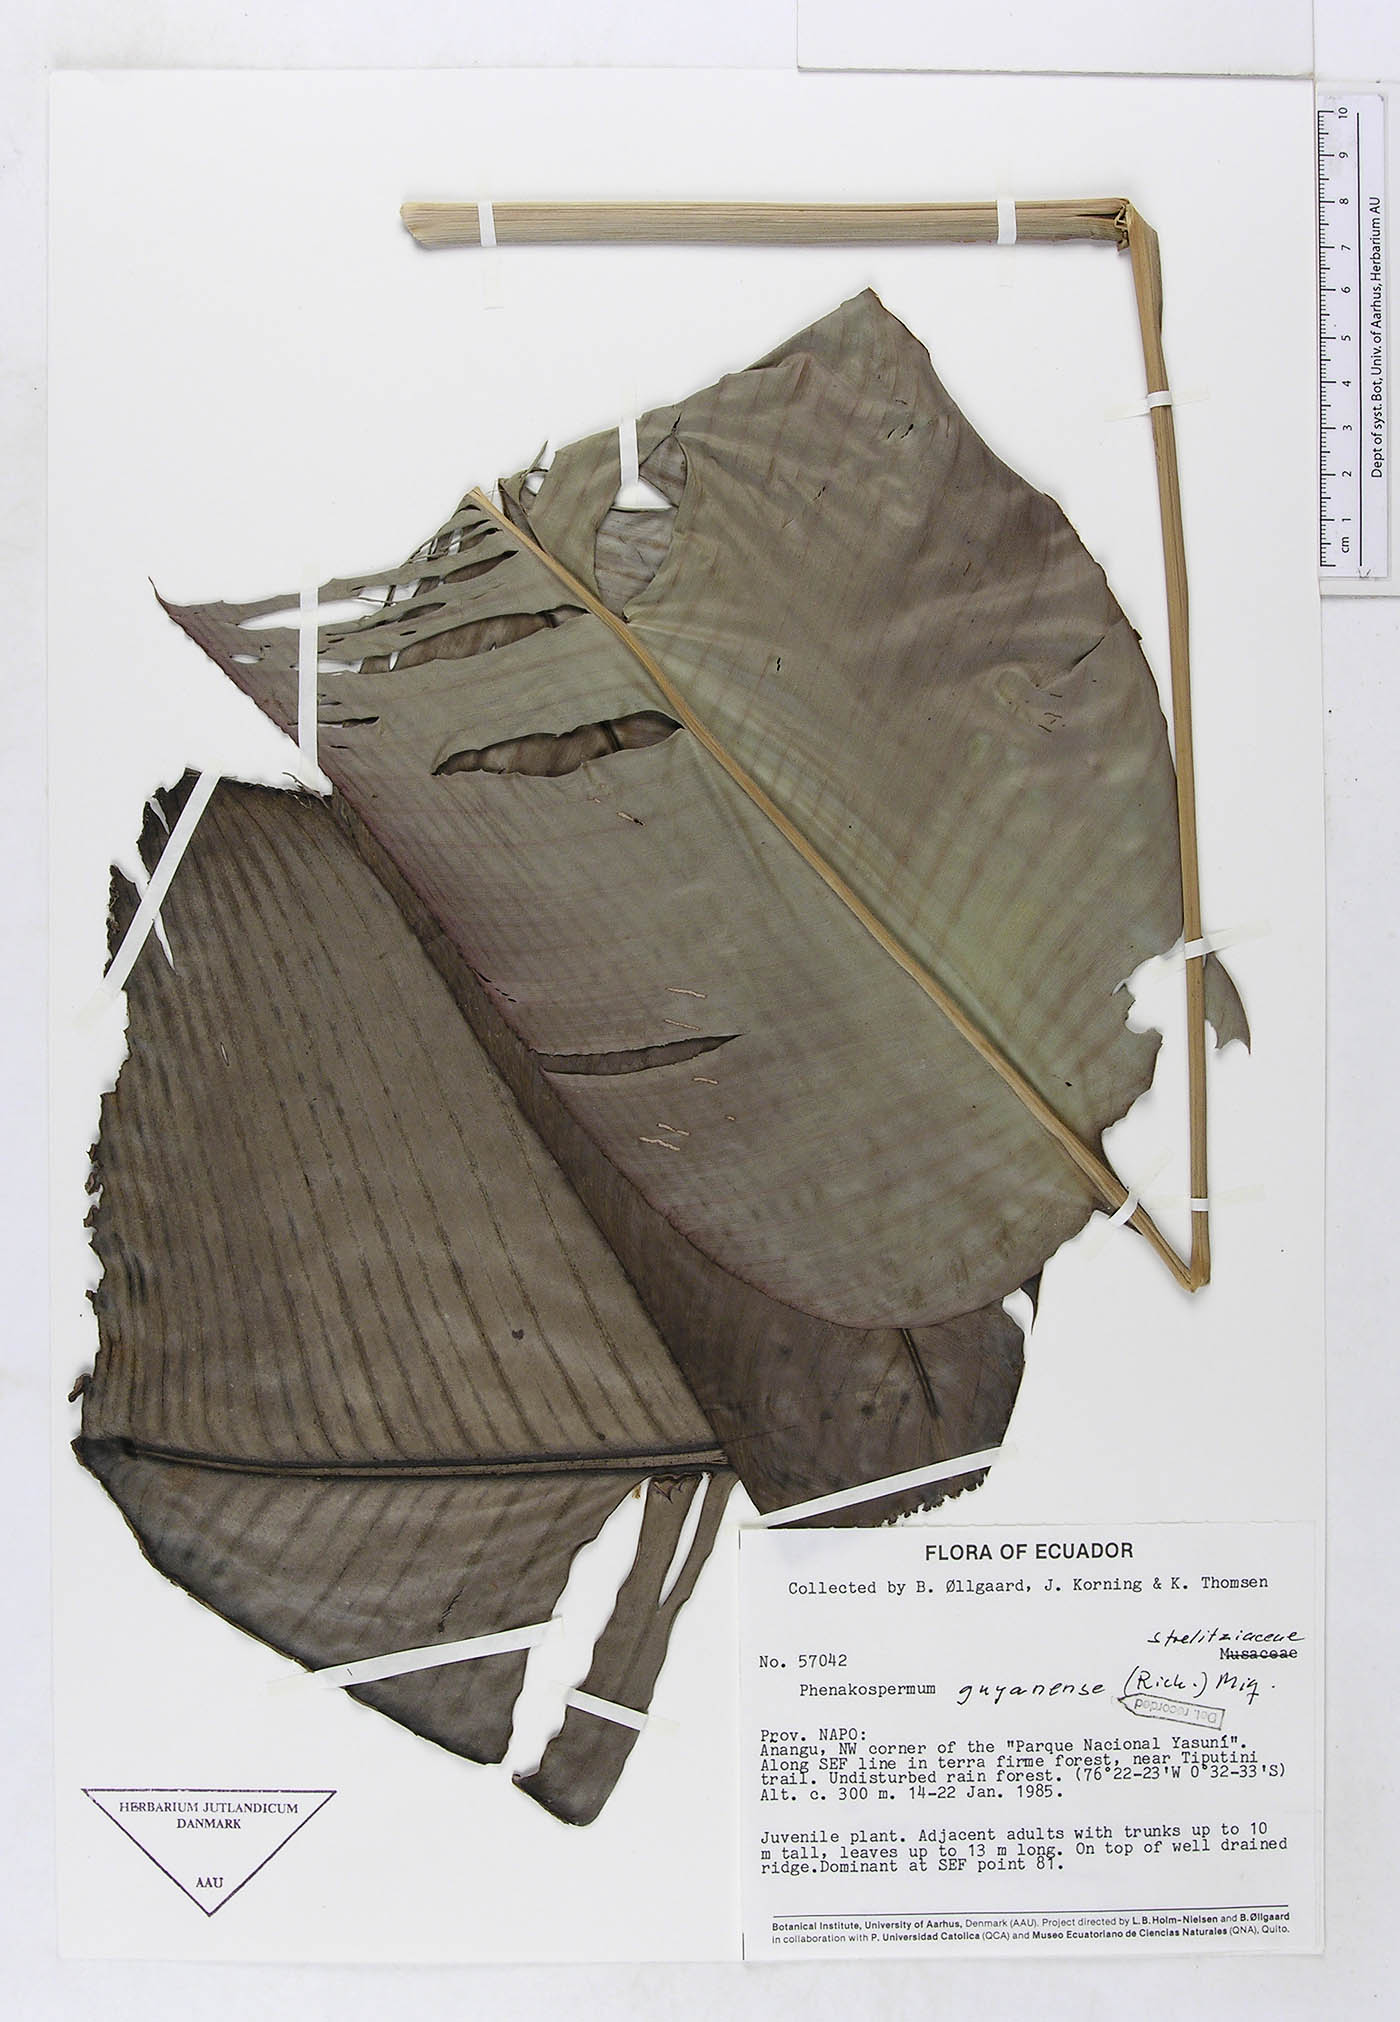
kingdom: Plantae
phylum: Tracheophyta
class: Liliopsida
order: Zingiberales
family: Strelitziaceae
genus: Phenakospermum
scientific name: Phenakospermum guyannense
